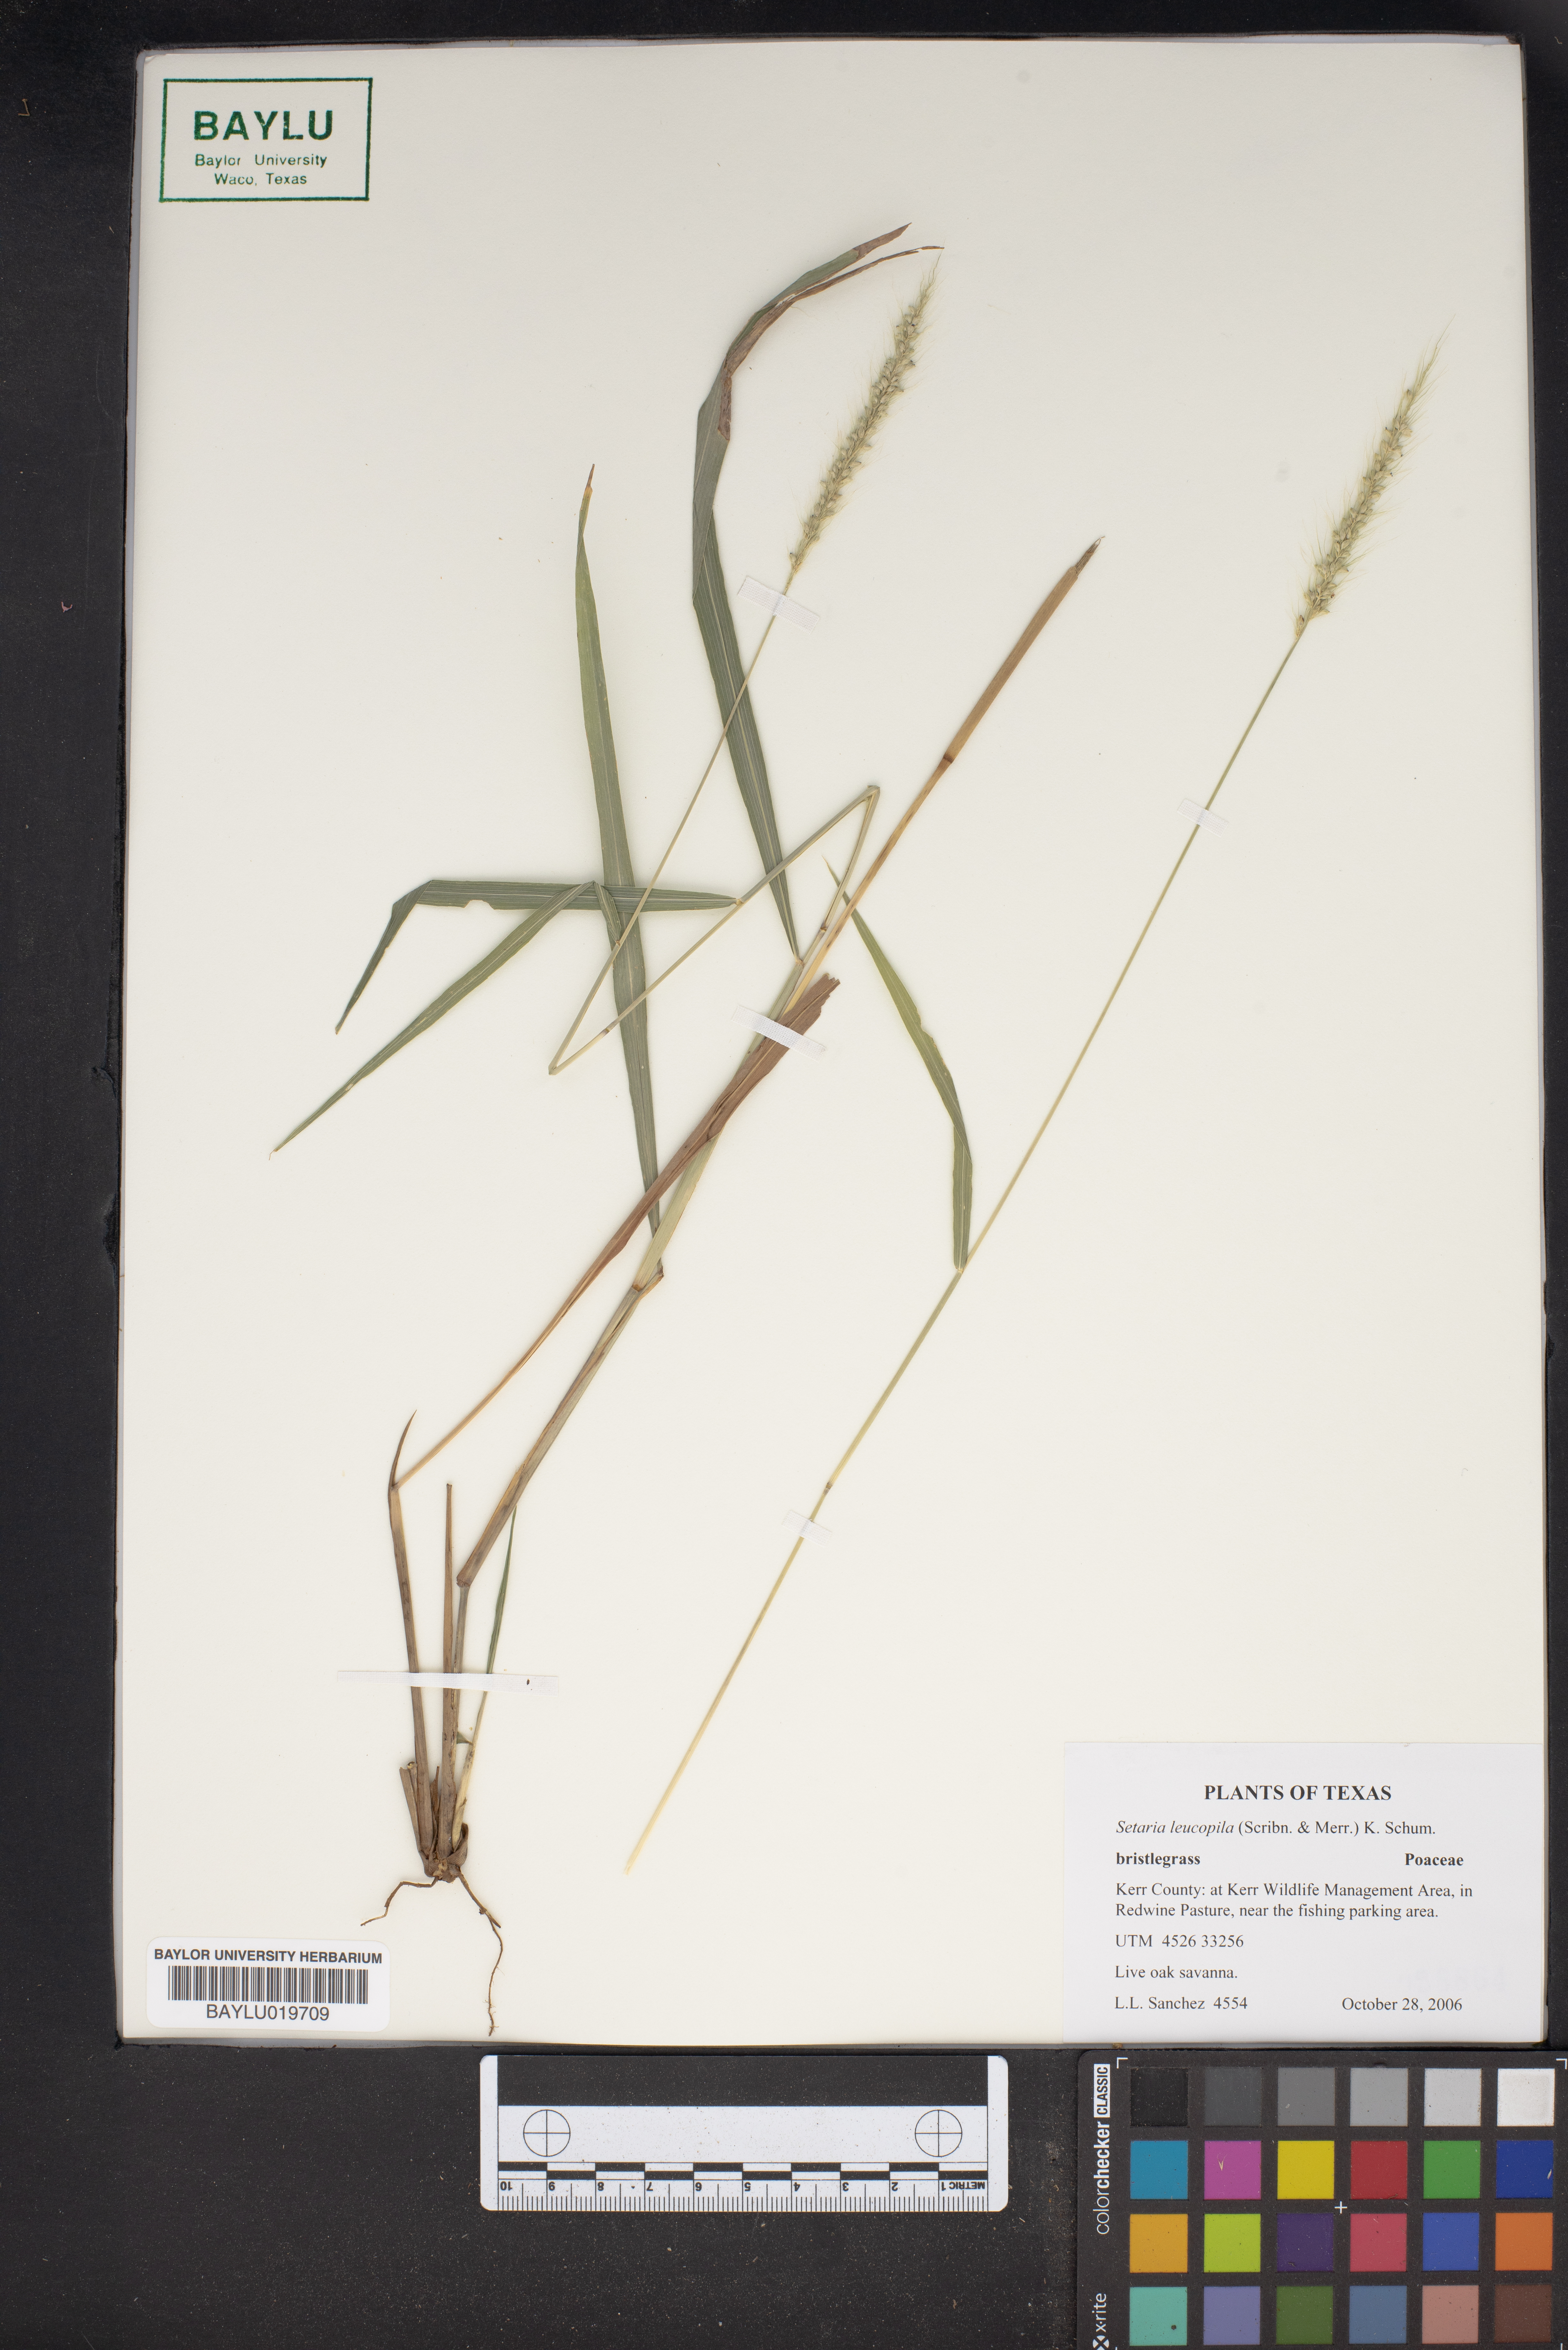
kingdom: Plantae
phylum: Tracheophyta
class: Liliopsida
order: Poales
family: Poaceae
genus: Setaria
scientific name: Setaria leucopila
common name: Plains bristle grass
